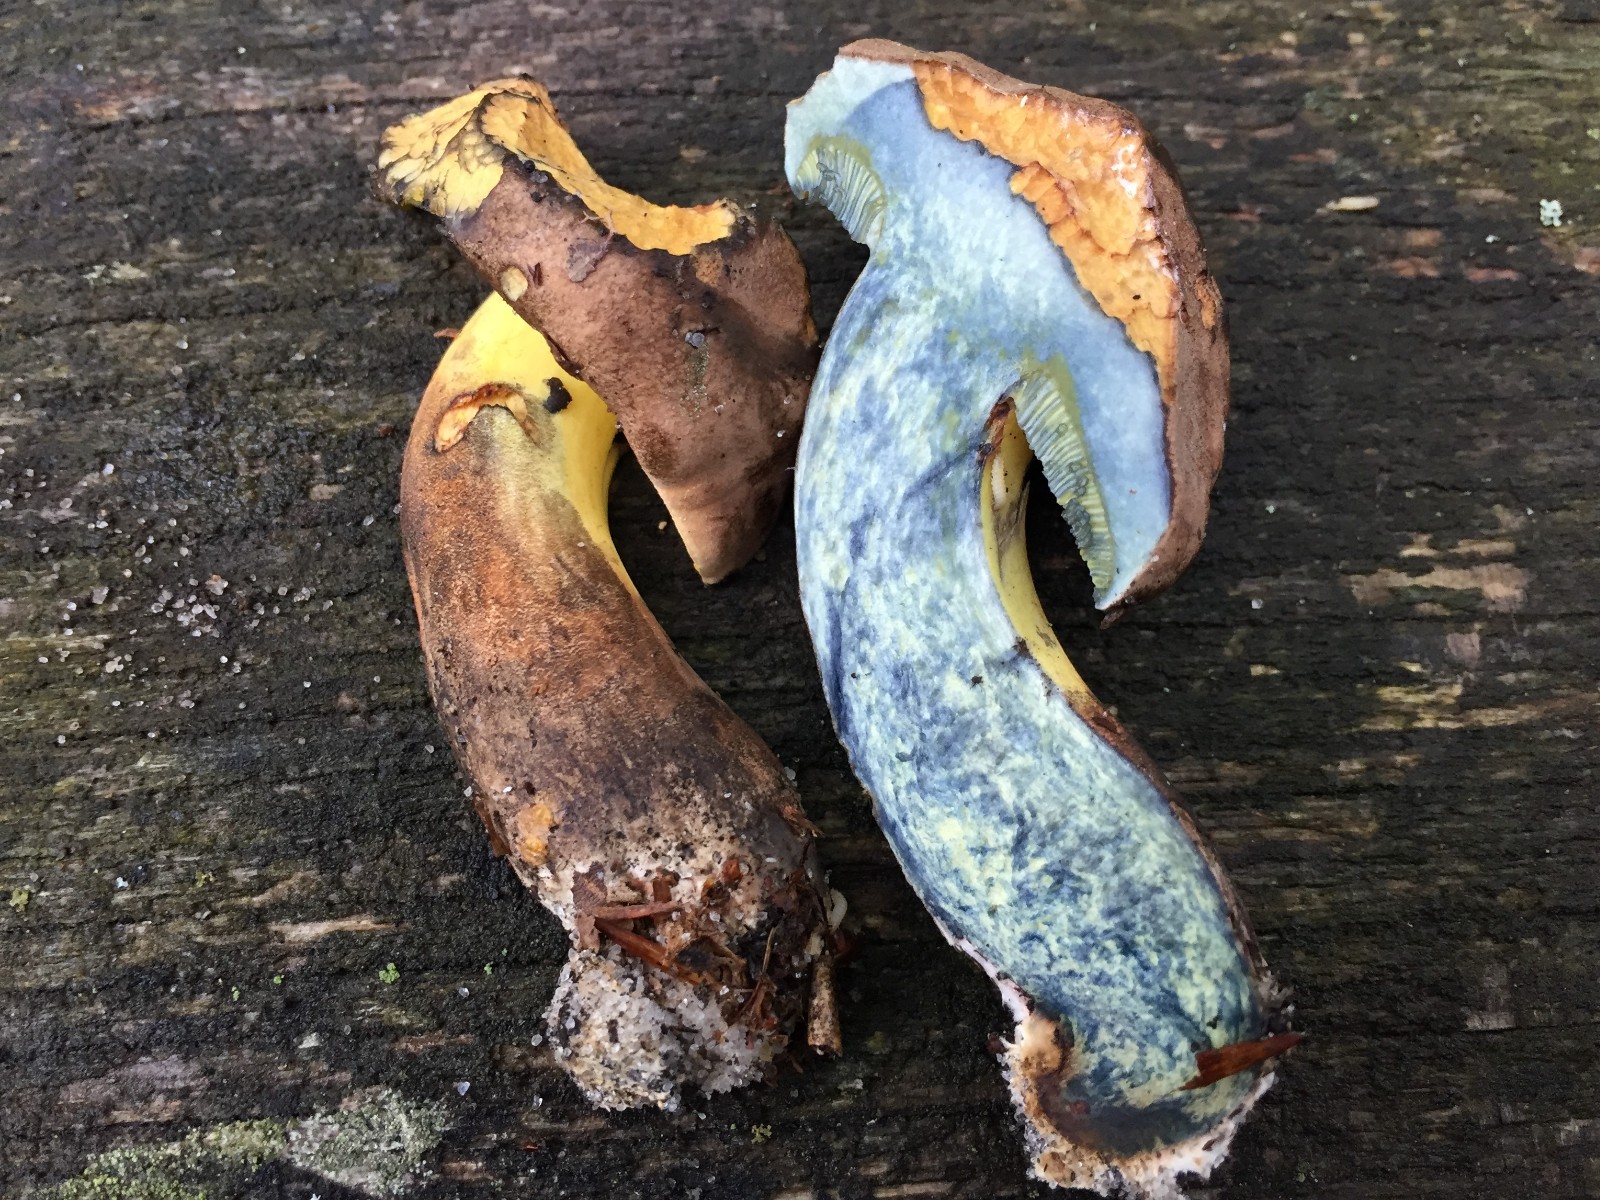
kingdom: Fungi
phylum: Basidiomycota
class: Agaricomycetes
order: Boletales
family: Boletaceae
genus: Cyanoboletus
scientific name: Cyanoboletus pulverulentus
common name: sortblånende rørhat
